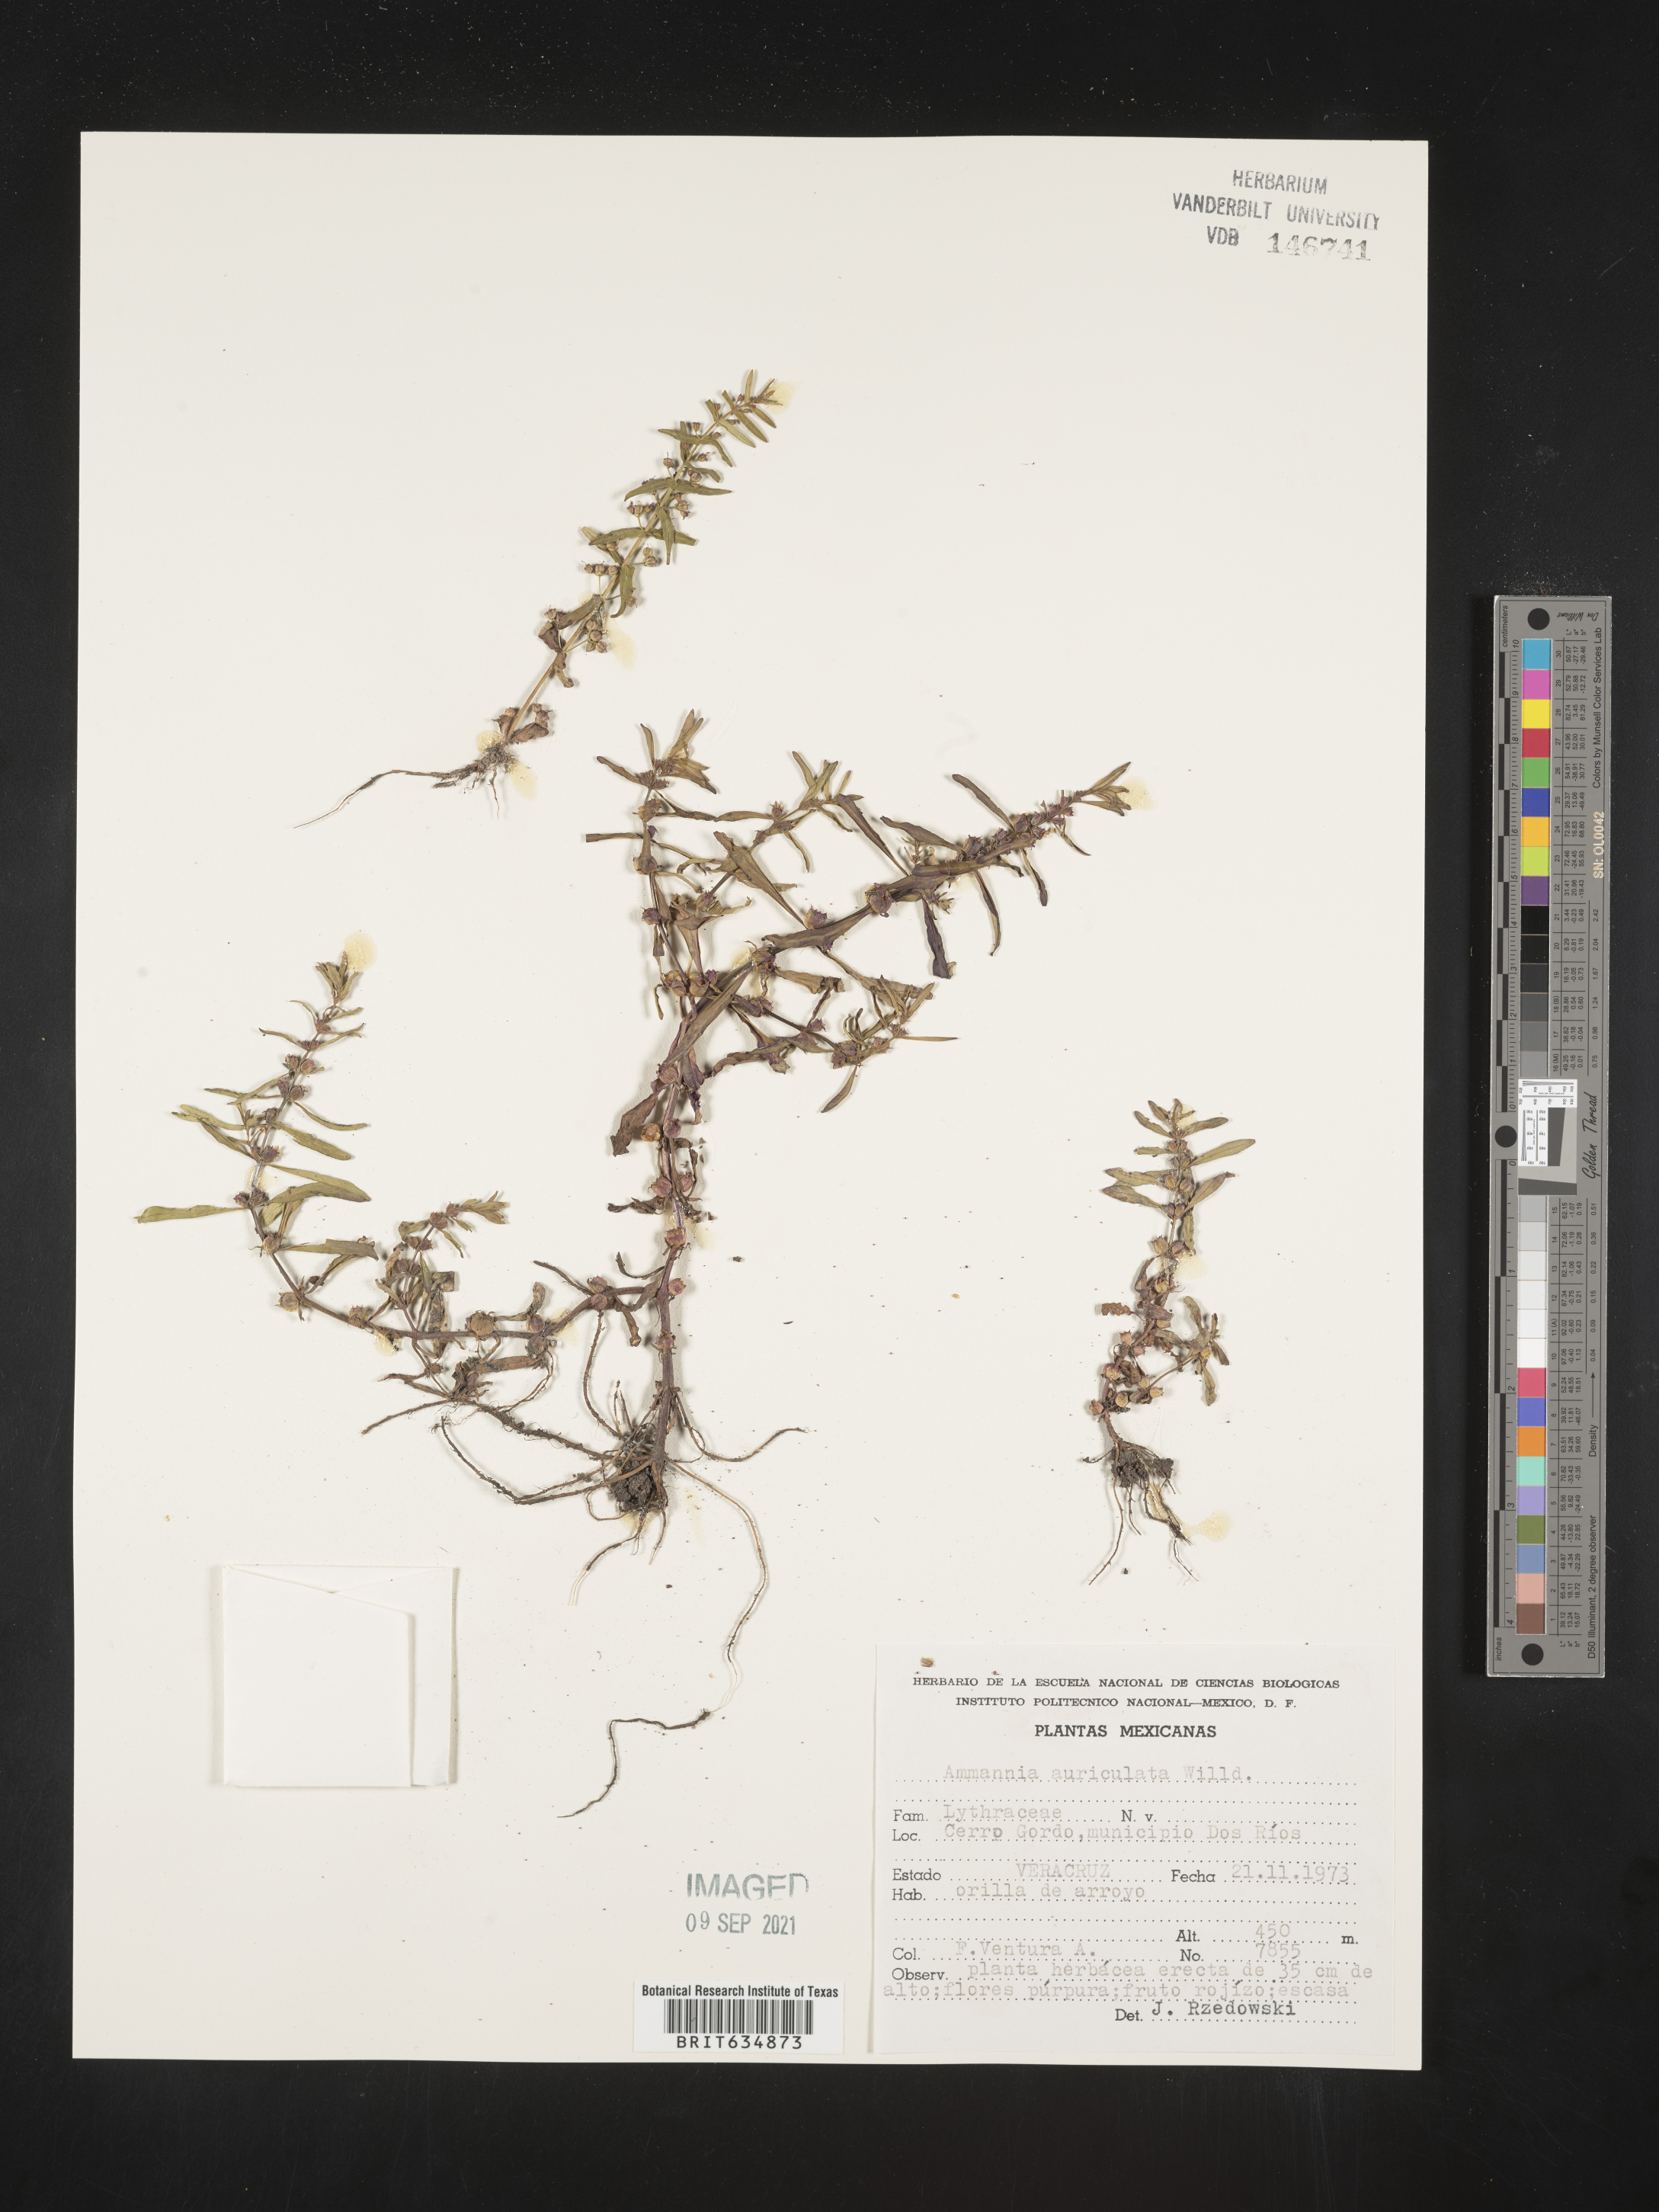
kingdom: Plantae
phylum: Tracheophyta
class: Magnoliopsida
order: Myrtales
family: Lythraceae
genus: Ammannia
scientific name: Ammannia
